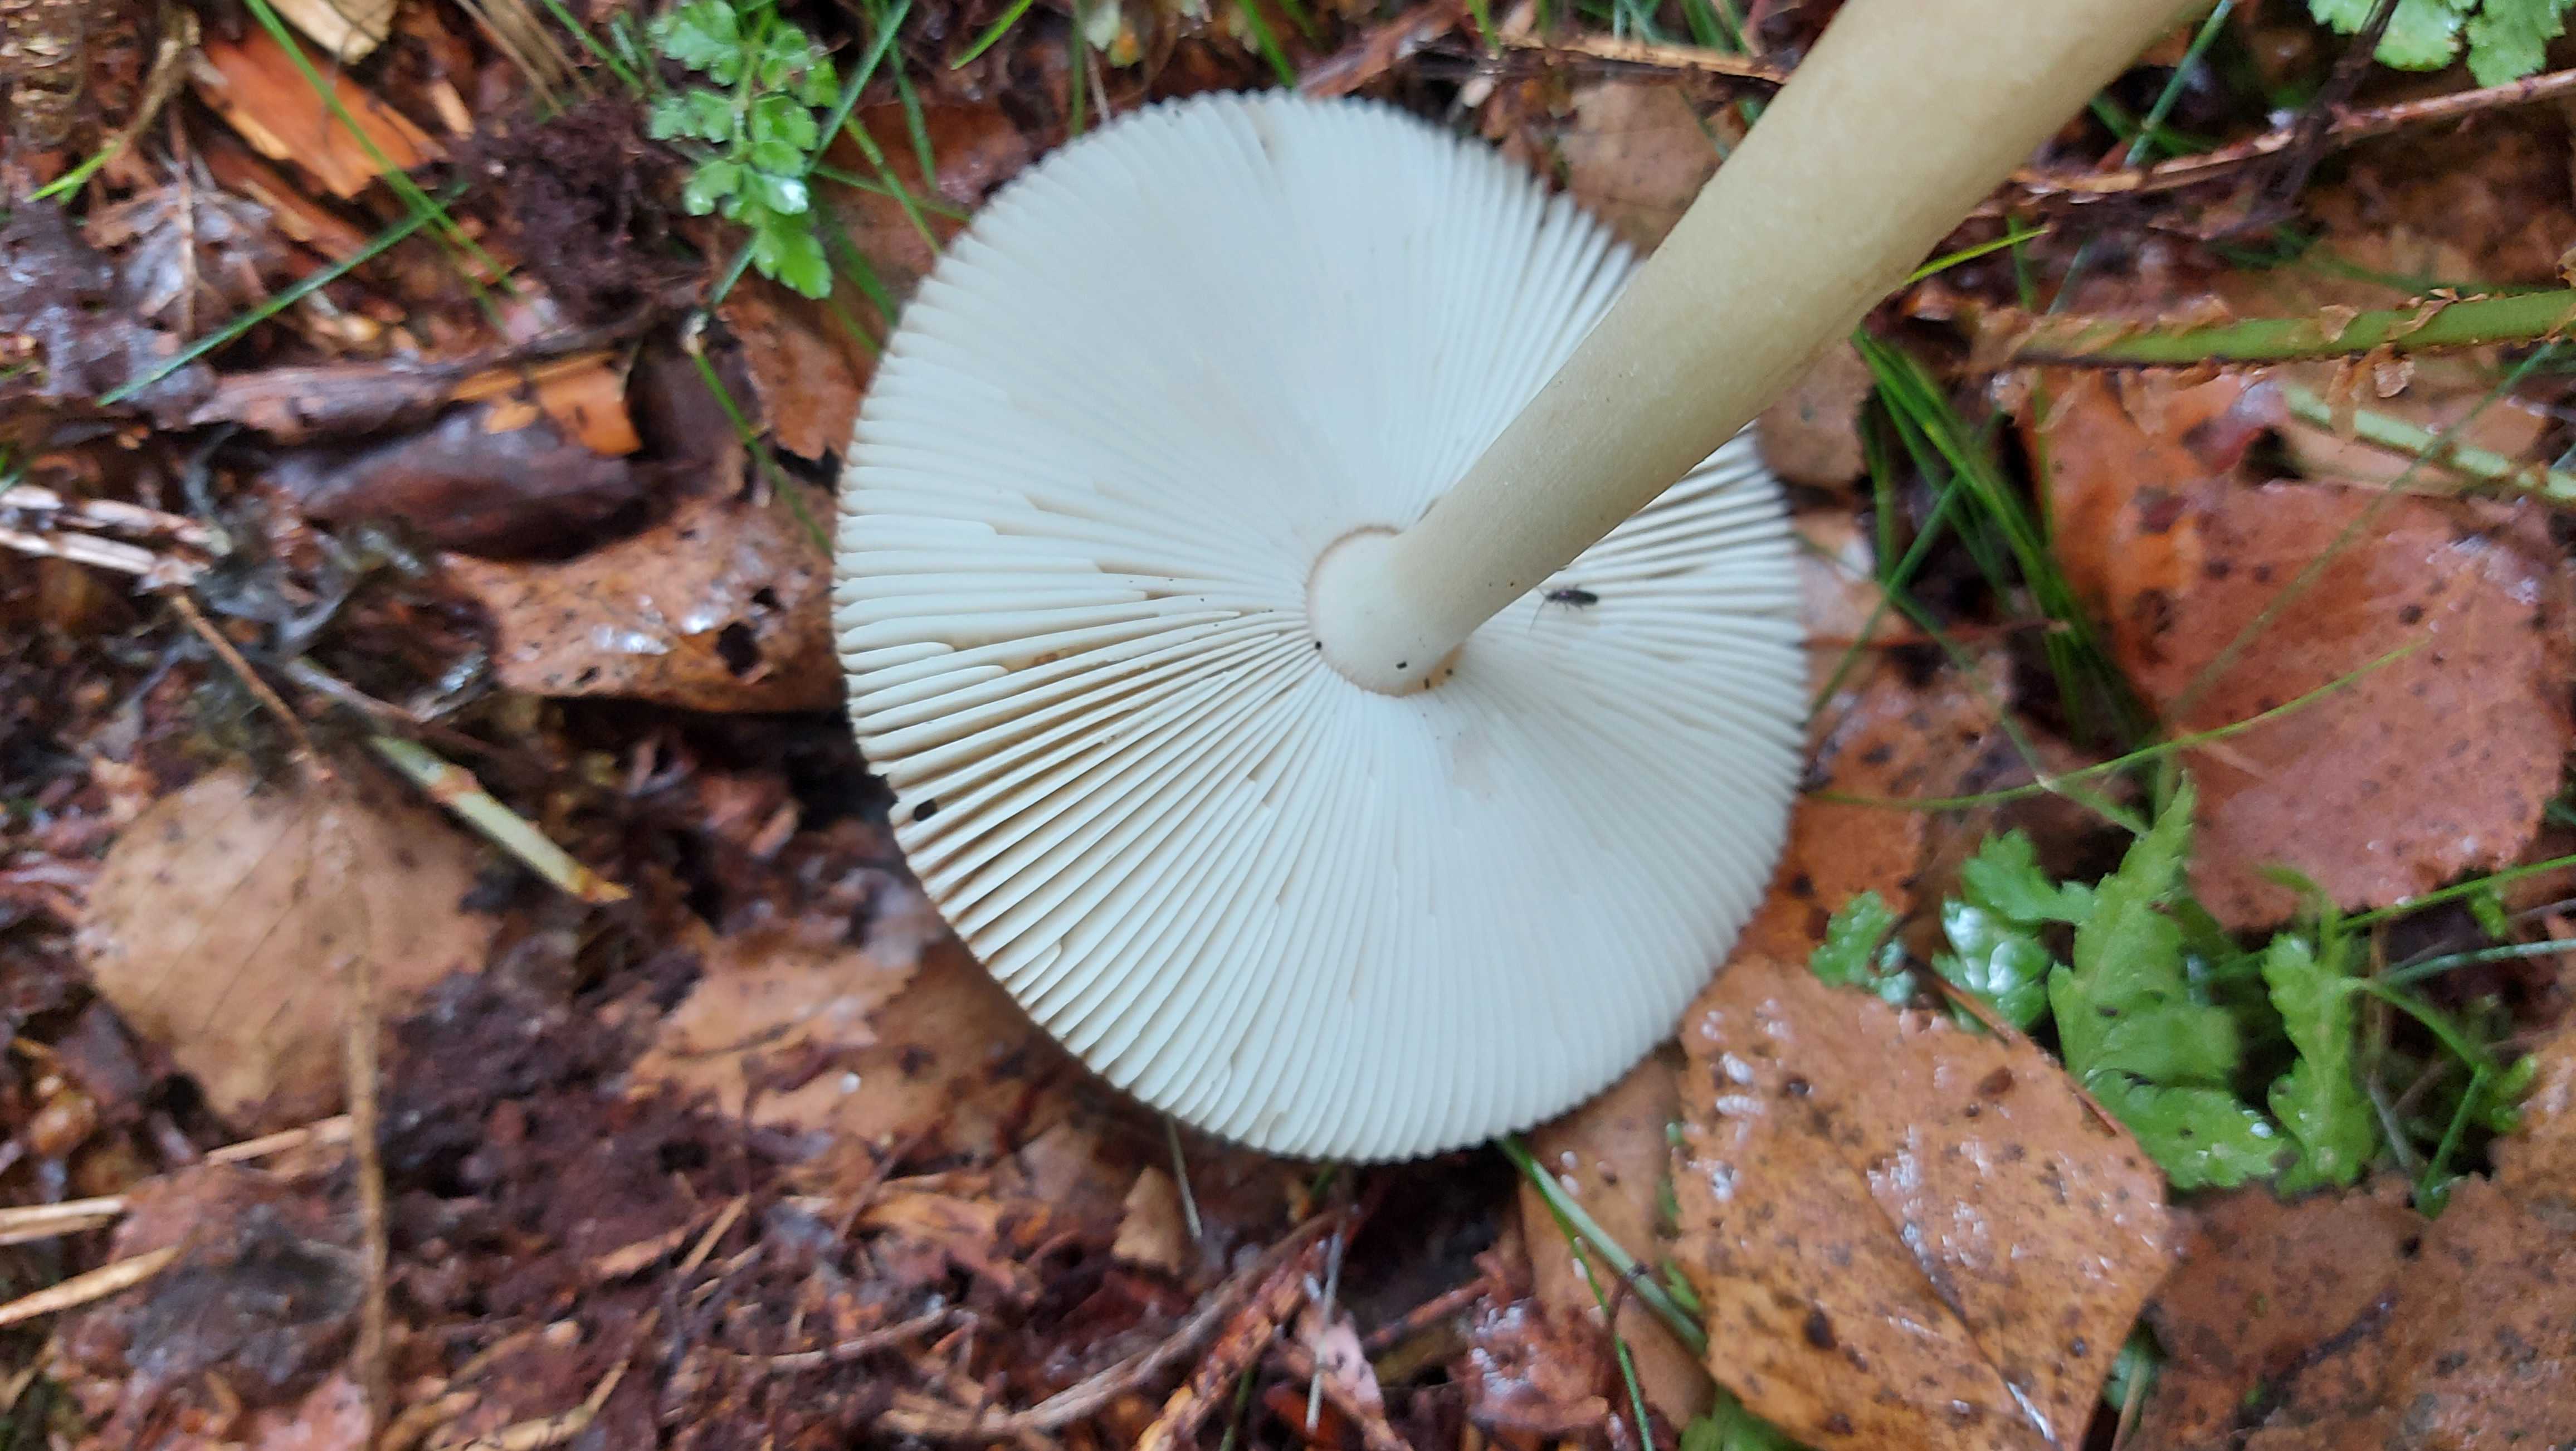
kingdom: Fungi
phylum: Basidiomycota
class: Agaricomycetes
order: Agaricales
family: Amanitaceae
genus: Amanita
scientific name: Amanita fulva
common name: brun kam-fluesvamp
